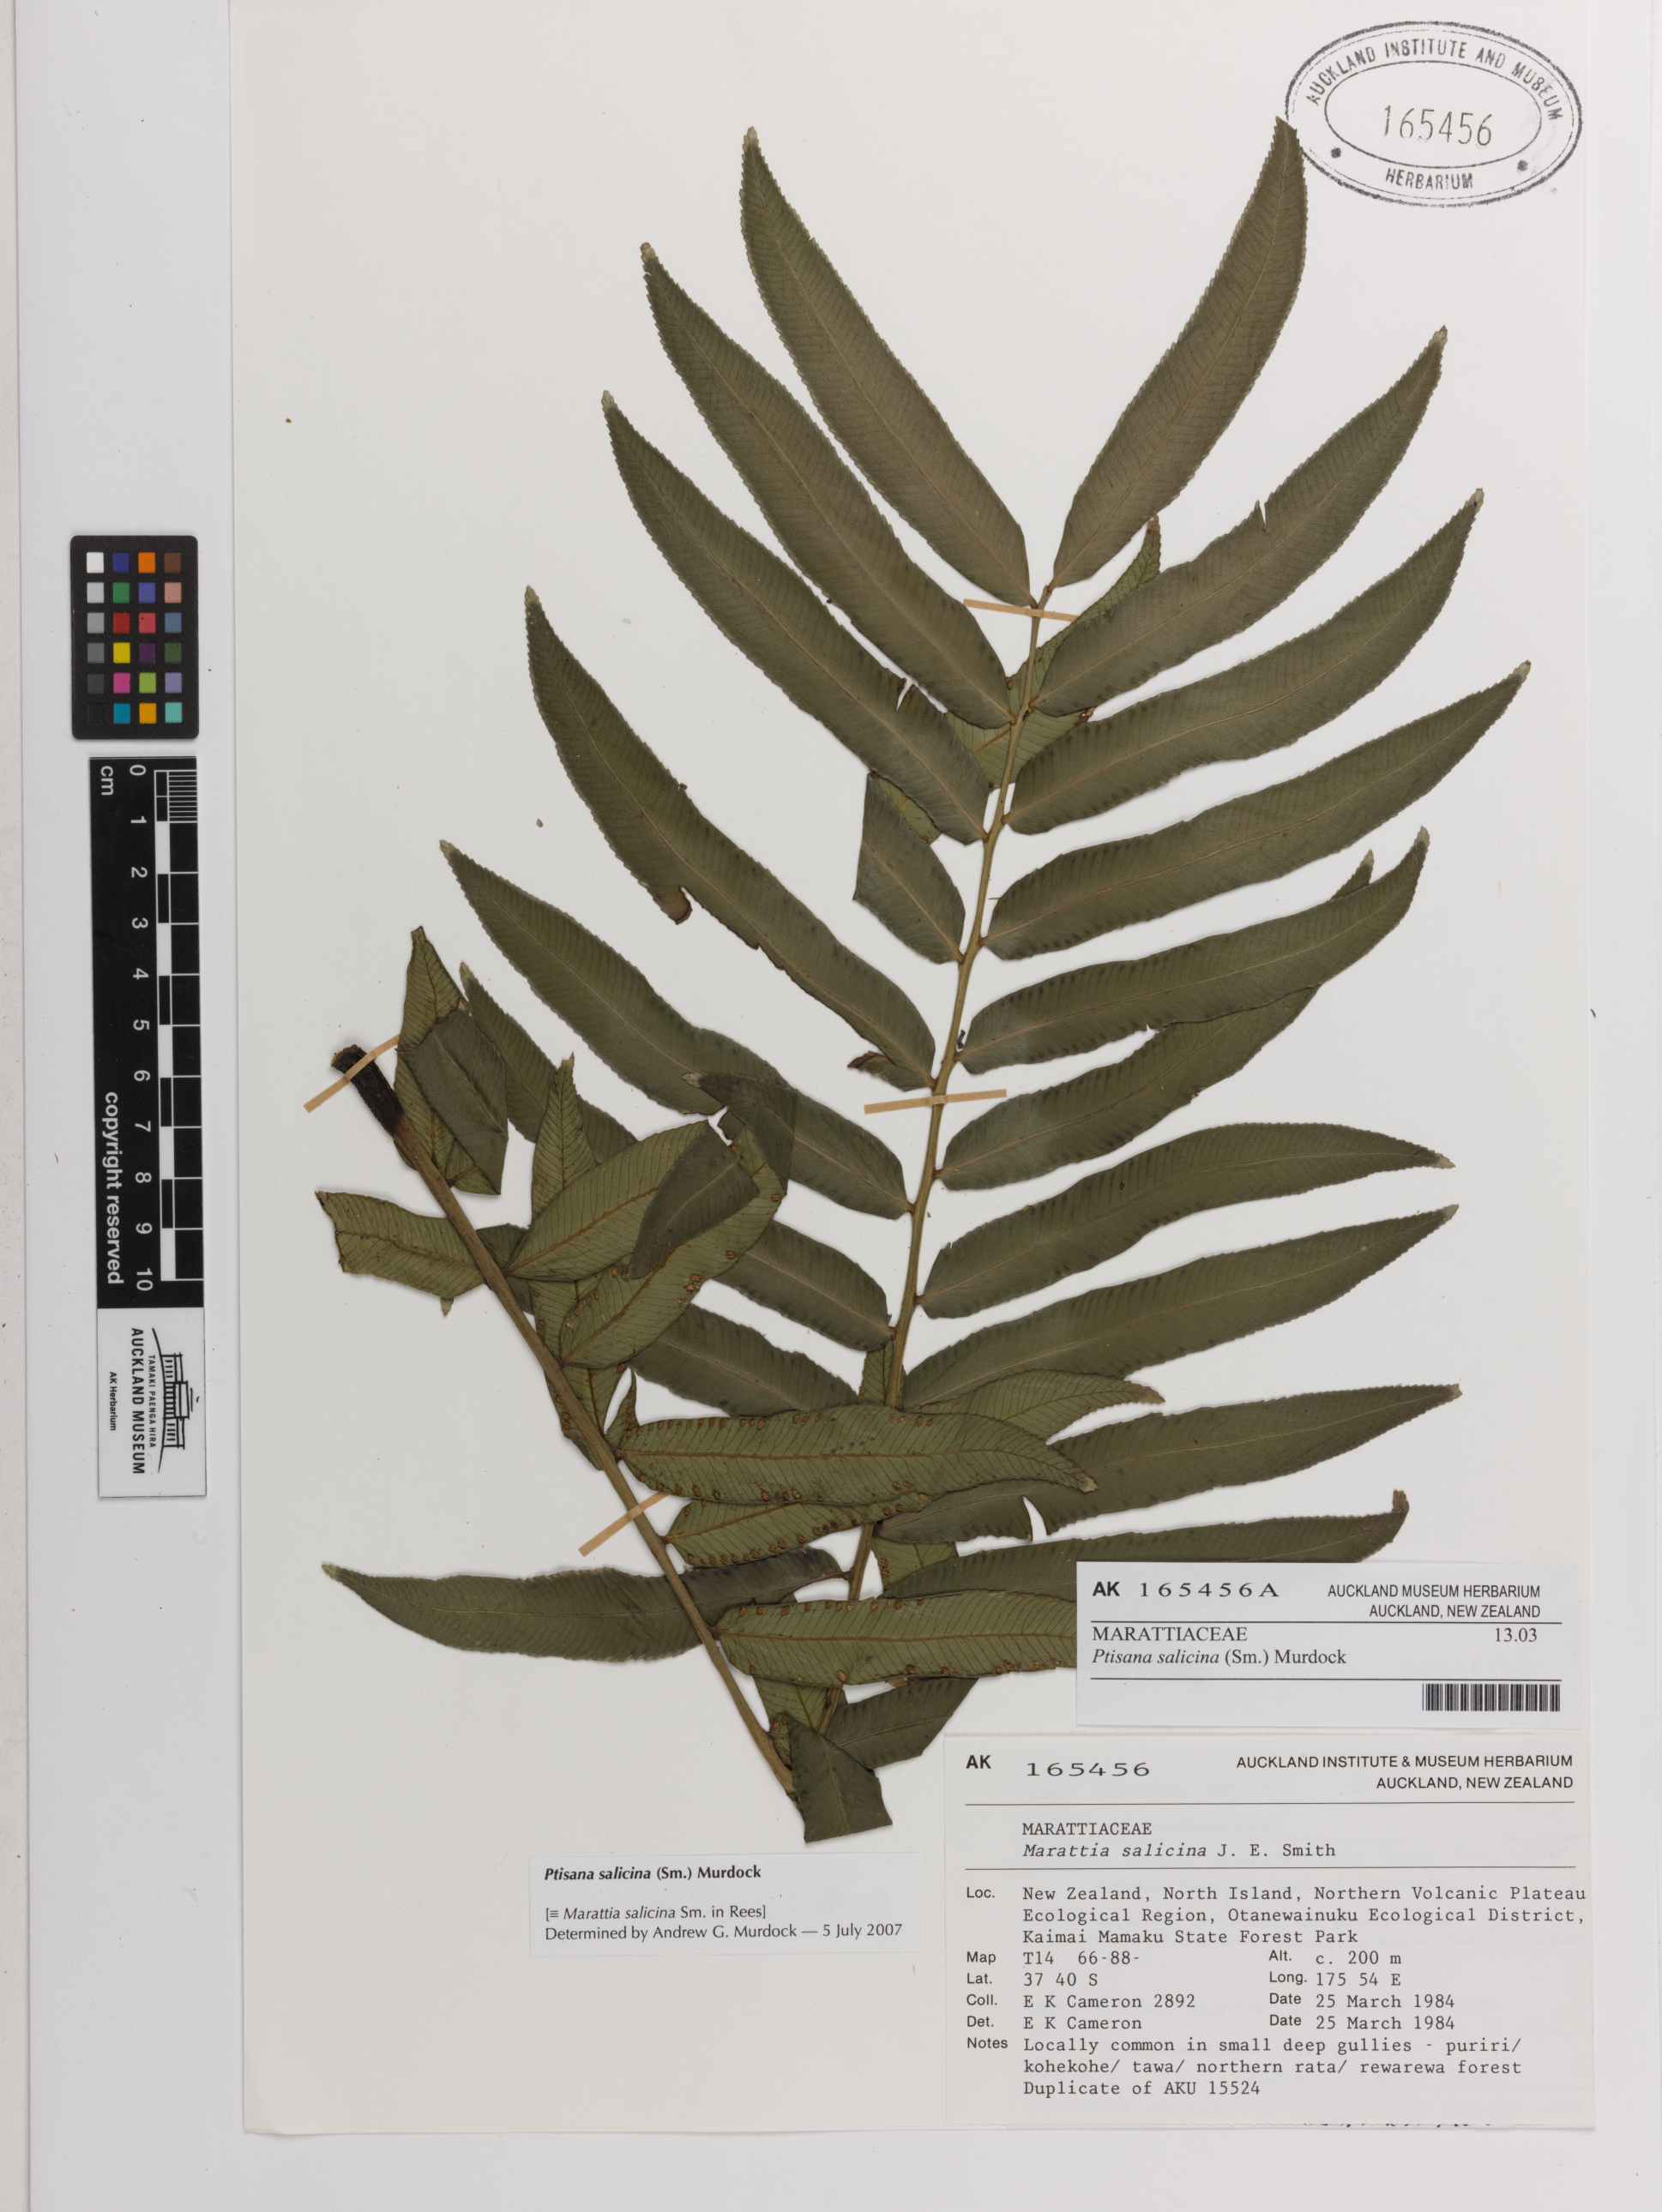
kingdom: Plantae
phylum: Tracheophyta
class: Polypodiopsida
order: Marattiales
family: Marattiaceae
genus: Ptisana
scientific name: Ptisana salicina
